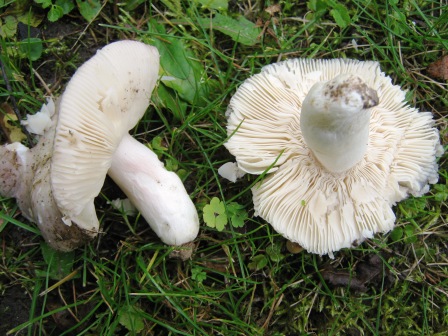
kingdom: Fungi
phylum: Basidiomycota
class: Agaricomycetes
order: Russulales
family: Russulaceae
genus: Russula
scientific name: Russula ionochlora
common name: violetgrøn skørhat
